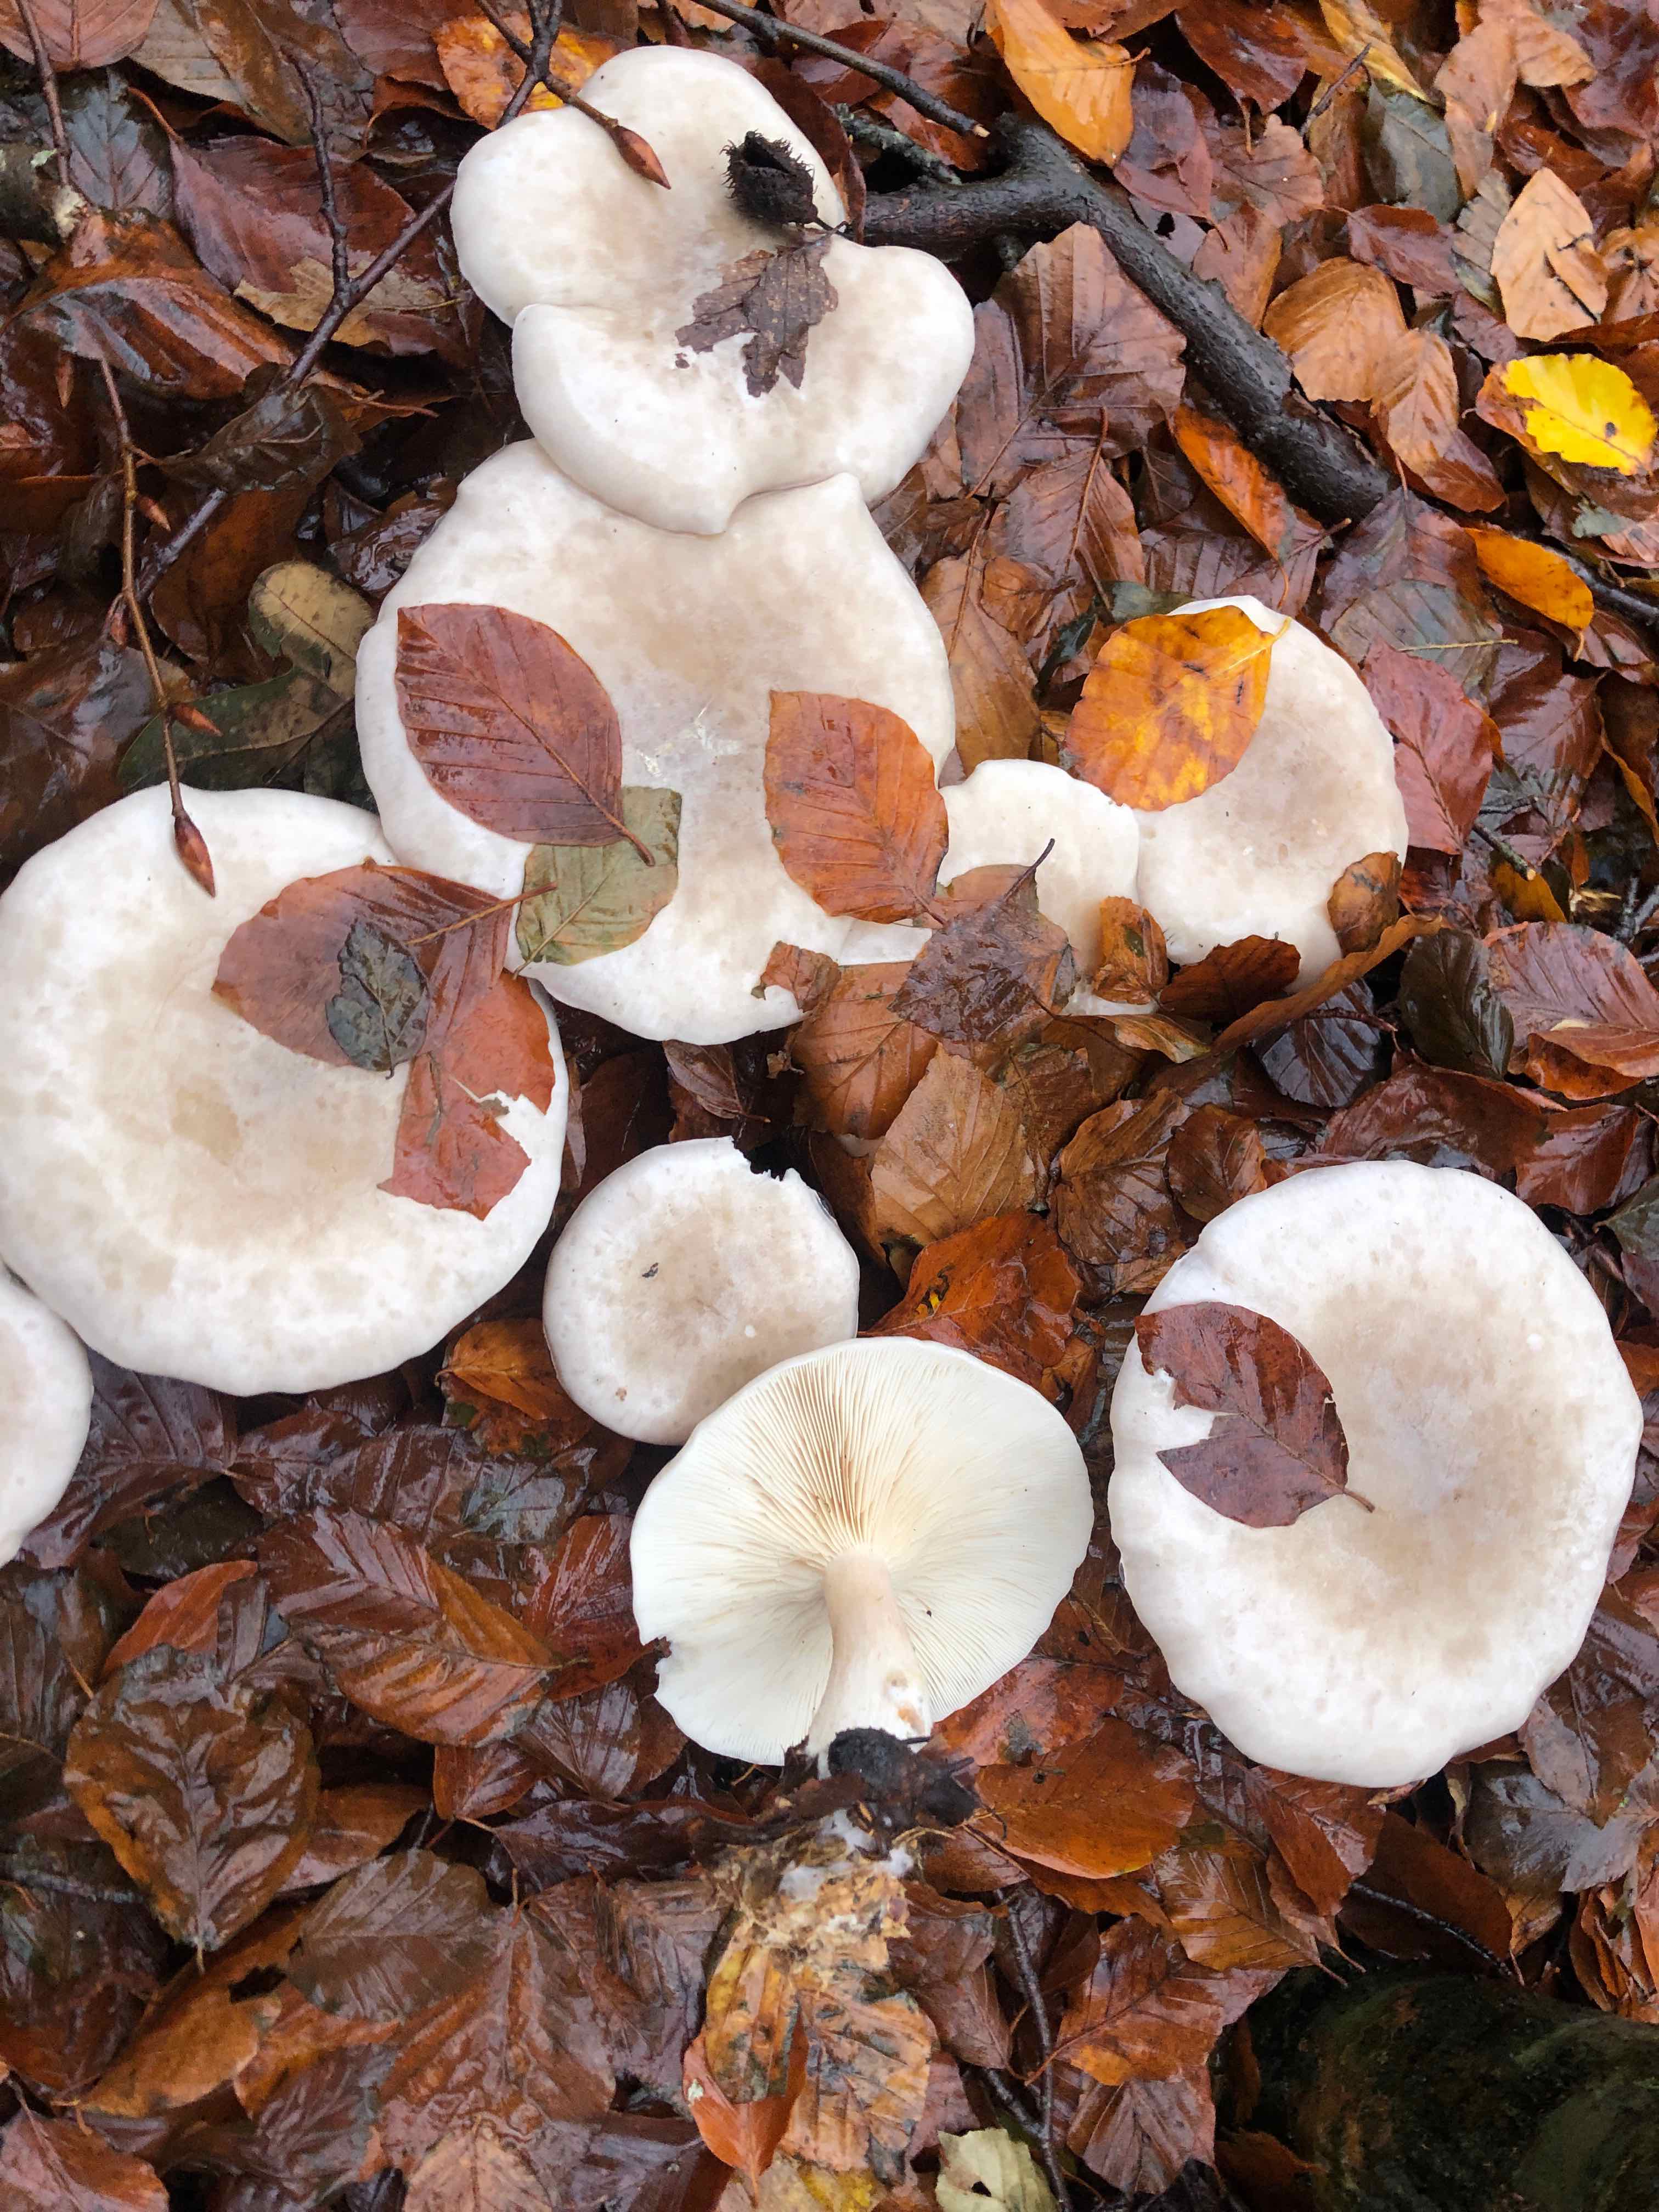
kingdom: Fungi
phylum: Basidiomycota
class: Agaricomycetes
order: Agaricales
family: Tricholomataceae
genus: Clitocybe
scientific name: Clitocybe nebularis
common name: tåge-tragthat
